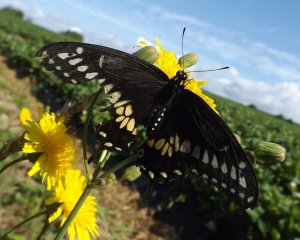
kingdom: Animalia
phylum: Arthropoda
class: Insecta
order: Lepidoptera
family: Papilionidae
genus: Papilio
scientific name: Papilio polyxenes
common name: Black Swallowtail
